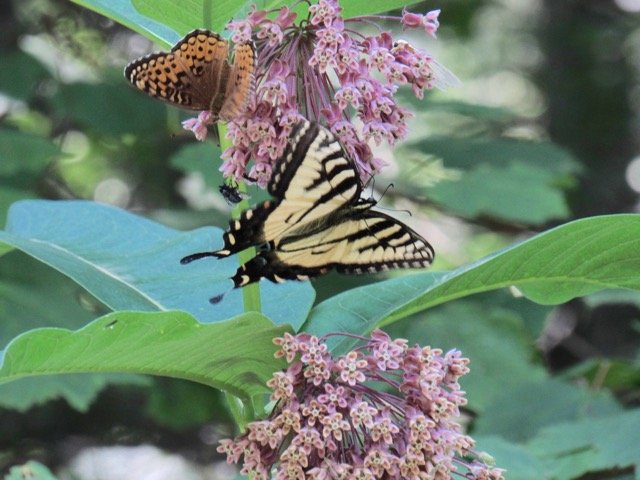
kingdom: Animalia
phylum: Arthropoda
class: Insecta
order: Lepidoptera
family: Papilionidae
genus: Pterourus
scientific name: Pterourus
